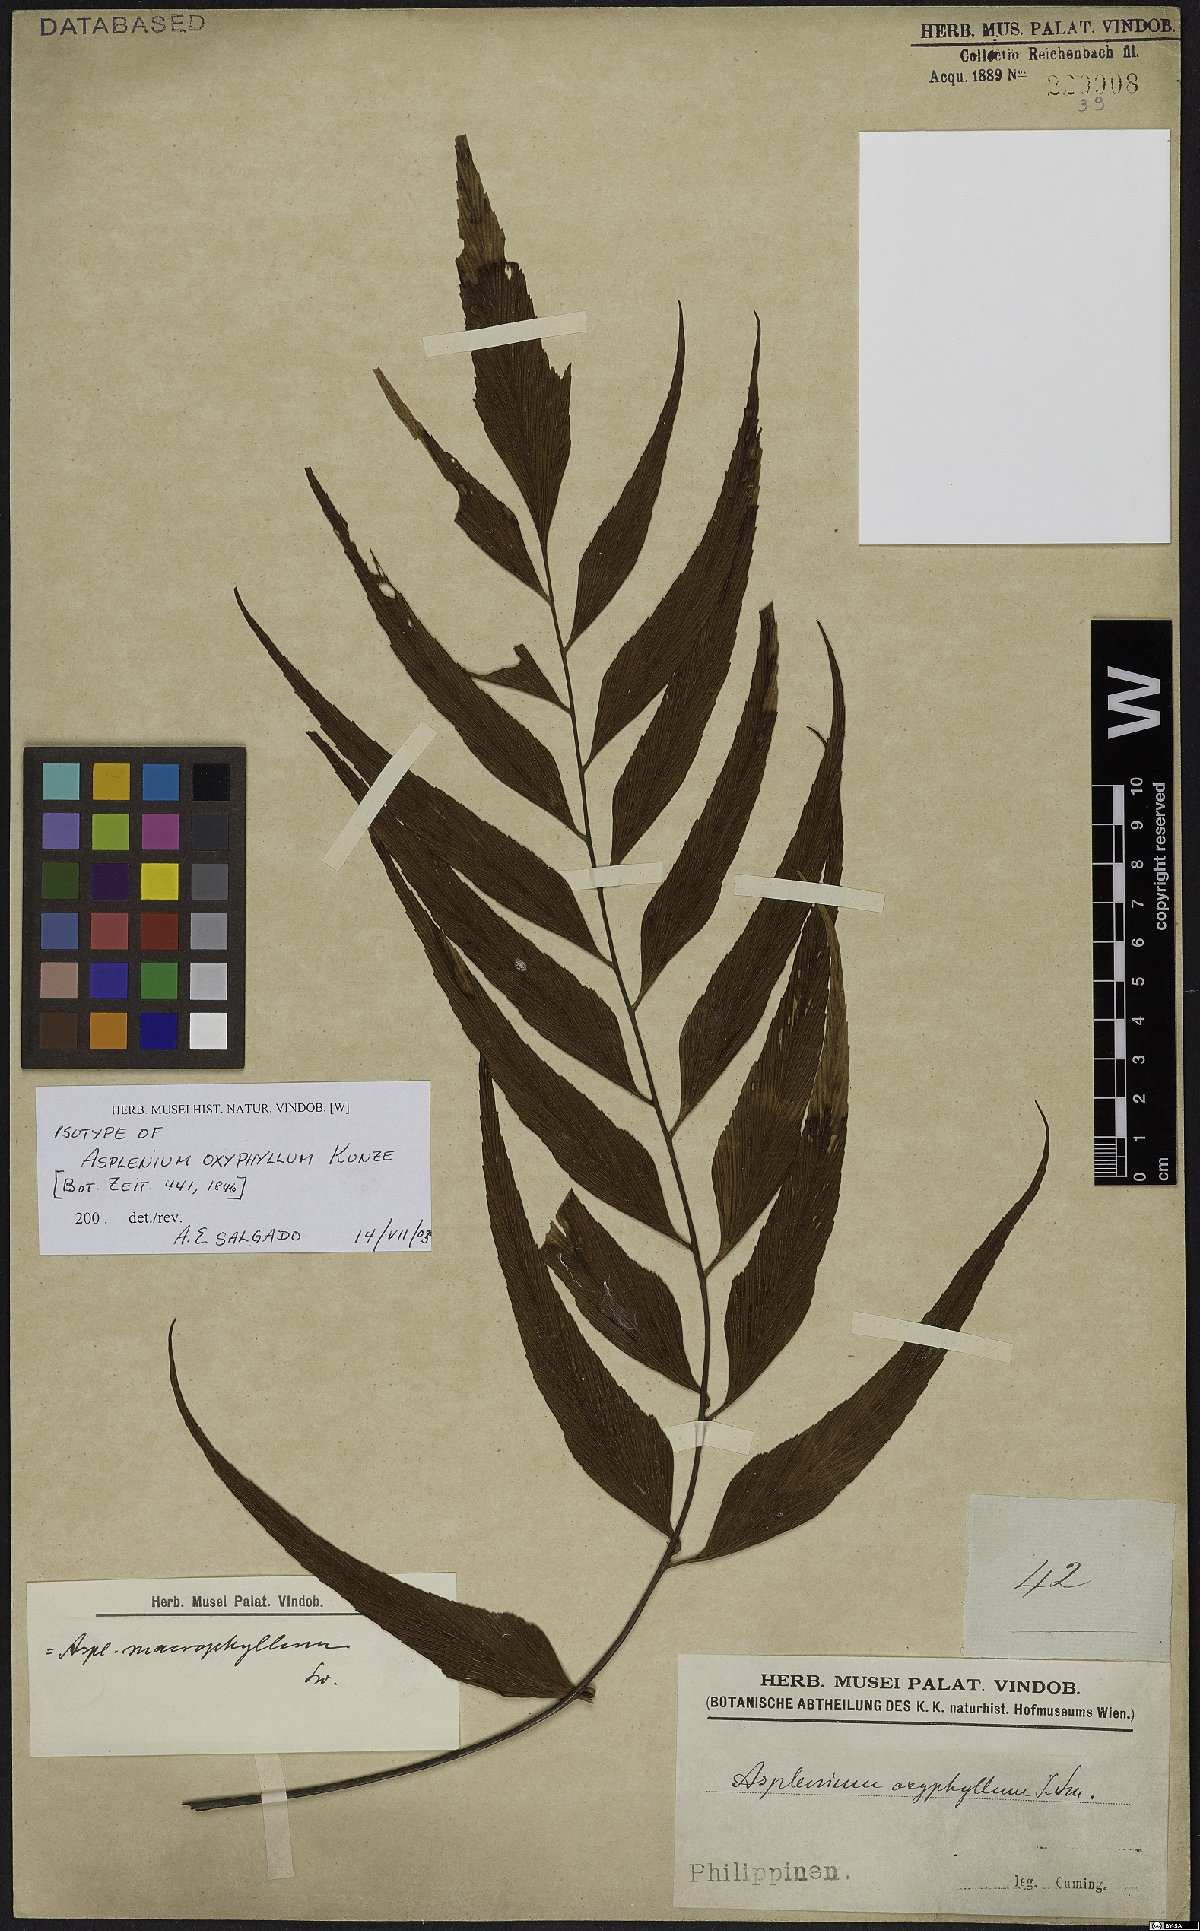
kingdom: Plantae
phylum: Tracheophyta
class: Polypodiopsida
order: Polypodiales
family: Aspleniaceae
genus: Asplenium
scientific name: Asplenium macrophyllum
